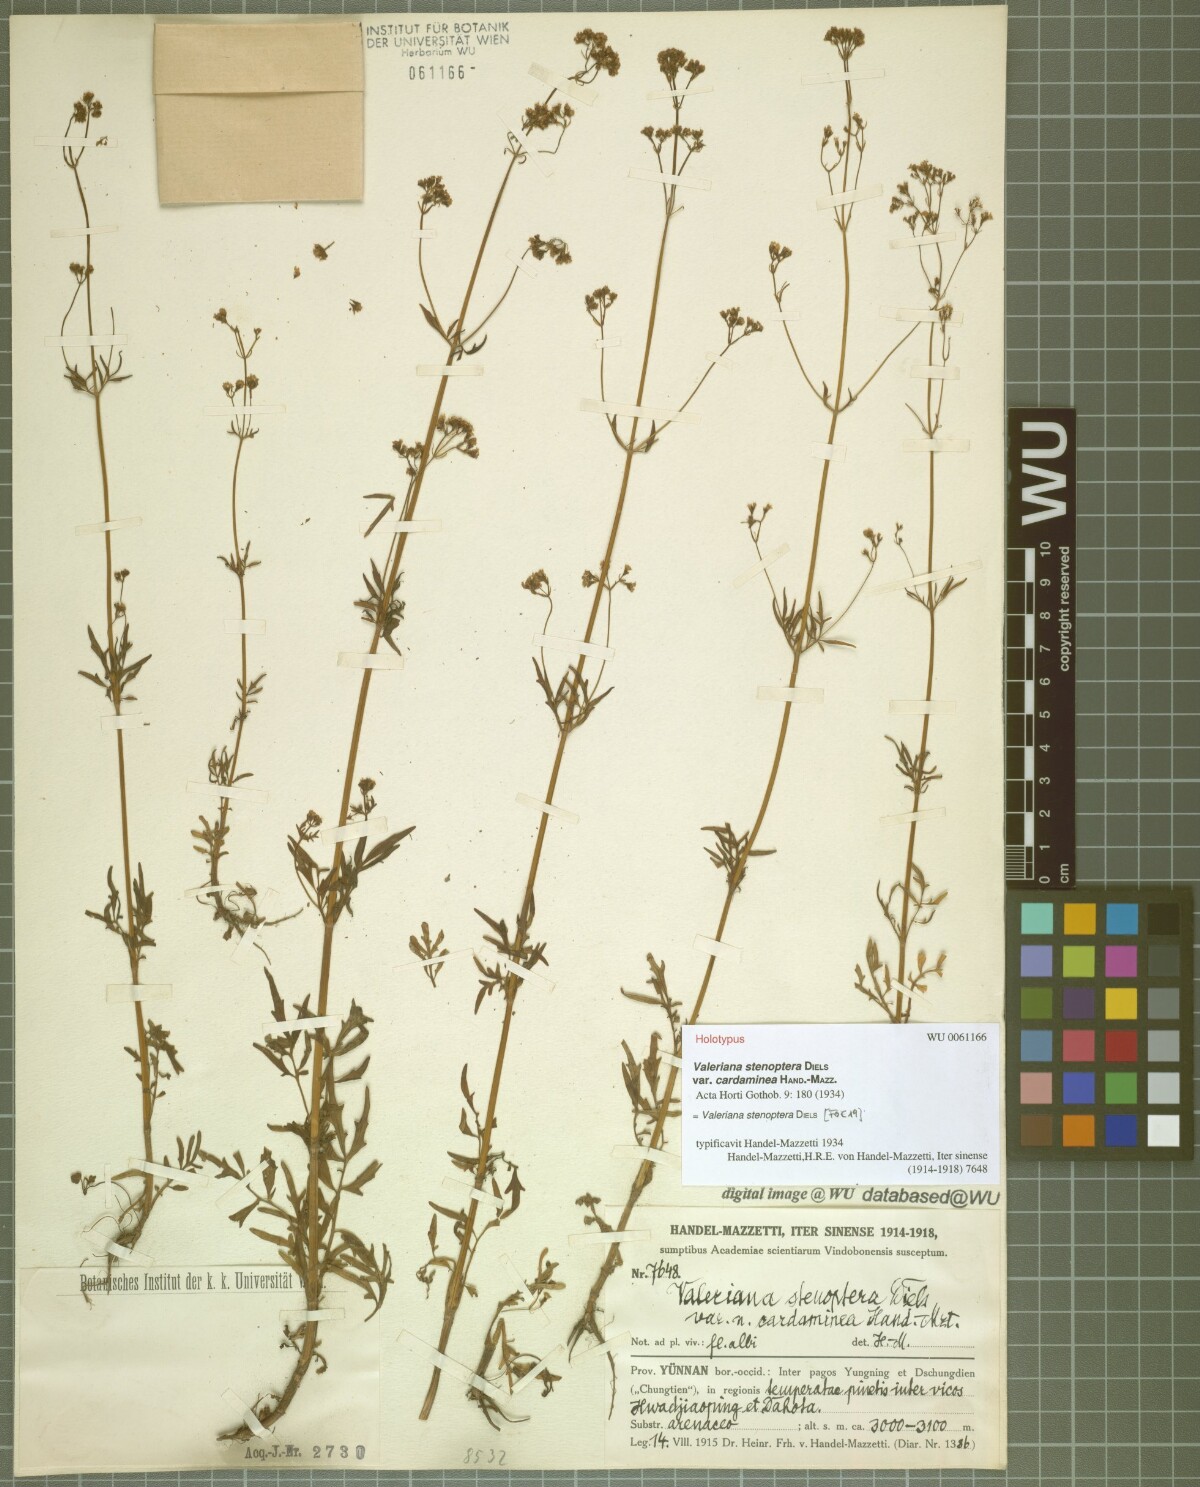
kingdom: Plantae
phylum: Tracheophyta
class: Magnoliopsida
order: Dipsacales
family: Caprifoliaceae
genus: Valeriana
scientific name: Valeriana stenoptera
